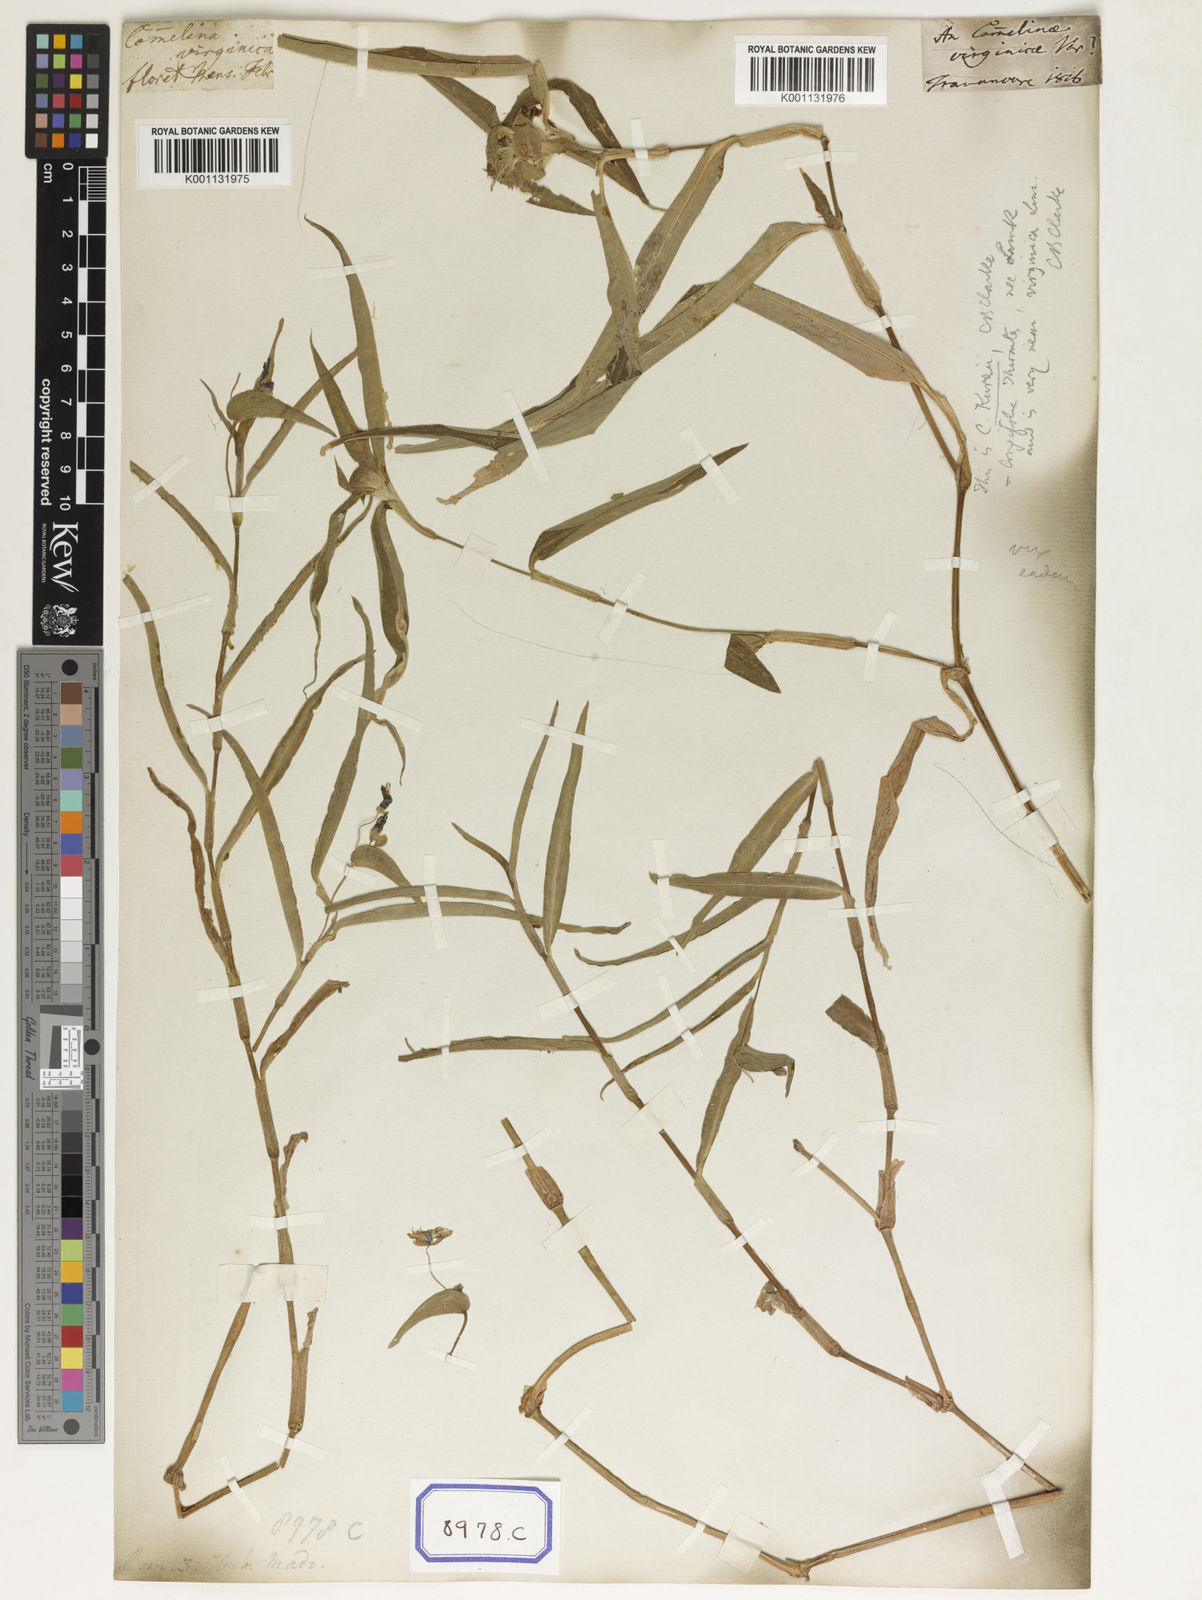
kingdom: Plantae
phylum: Tracheophyta
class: Liliopsida
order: Commelinales
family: Commelinaceae
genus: Commelina
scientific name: Commelina communis
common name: Asiatic dayflower
